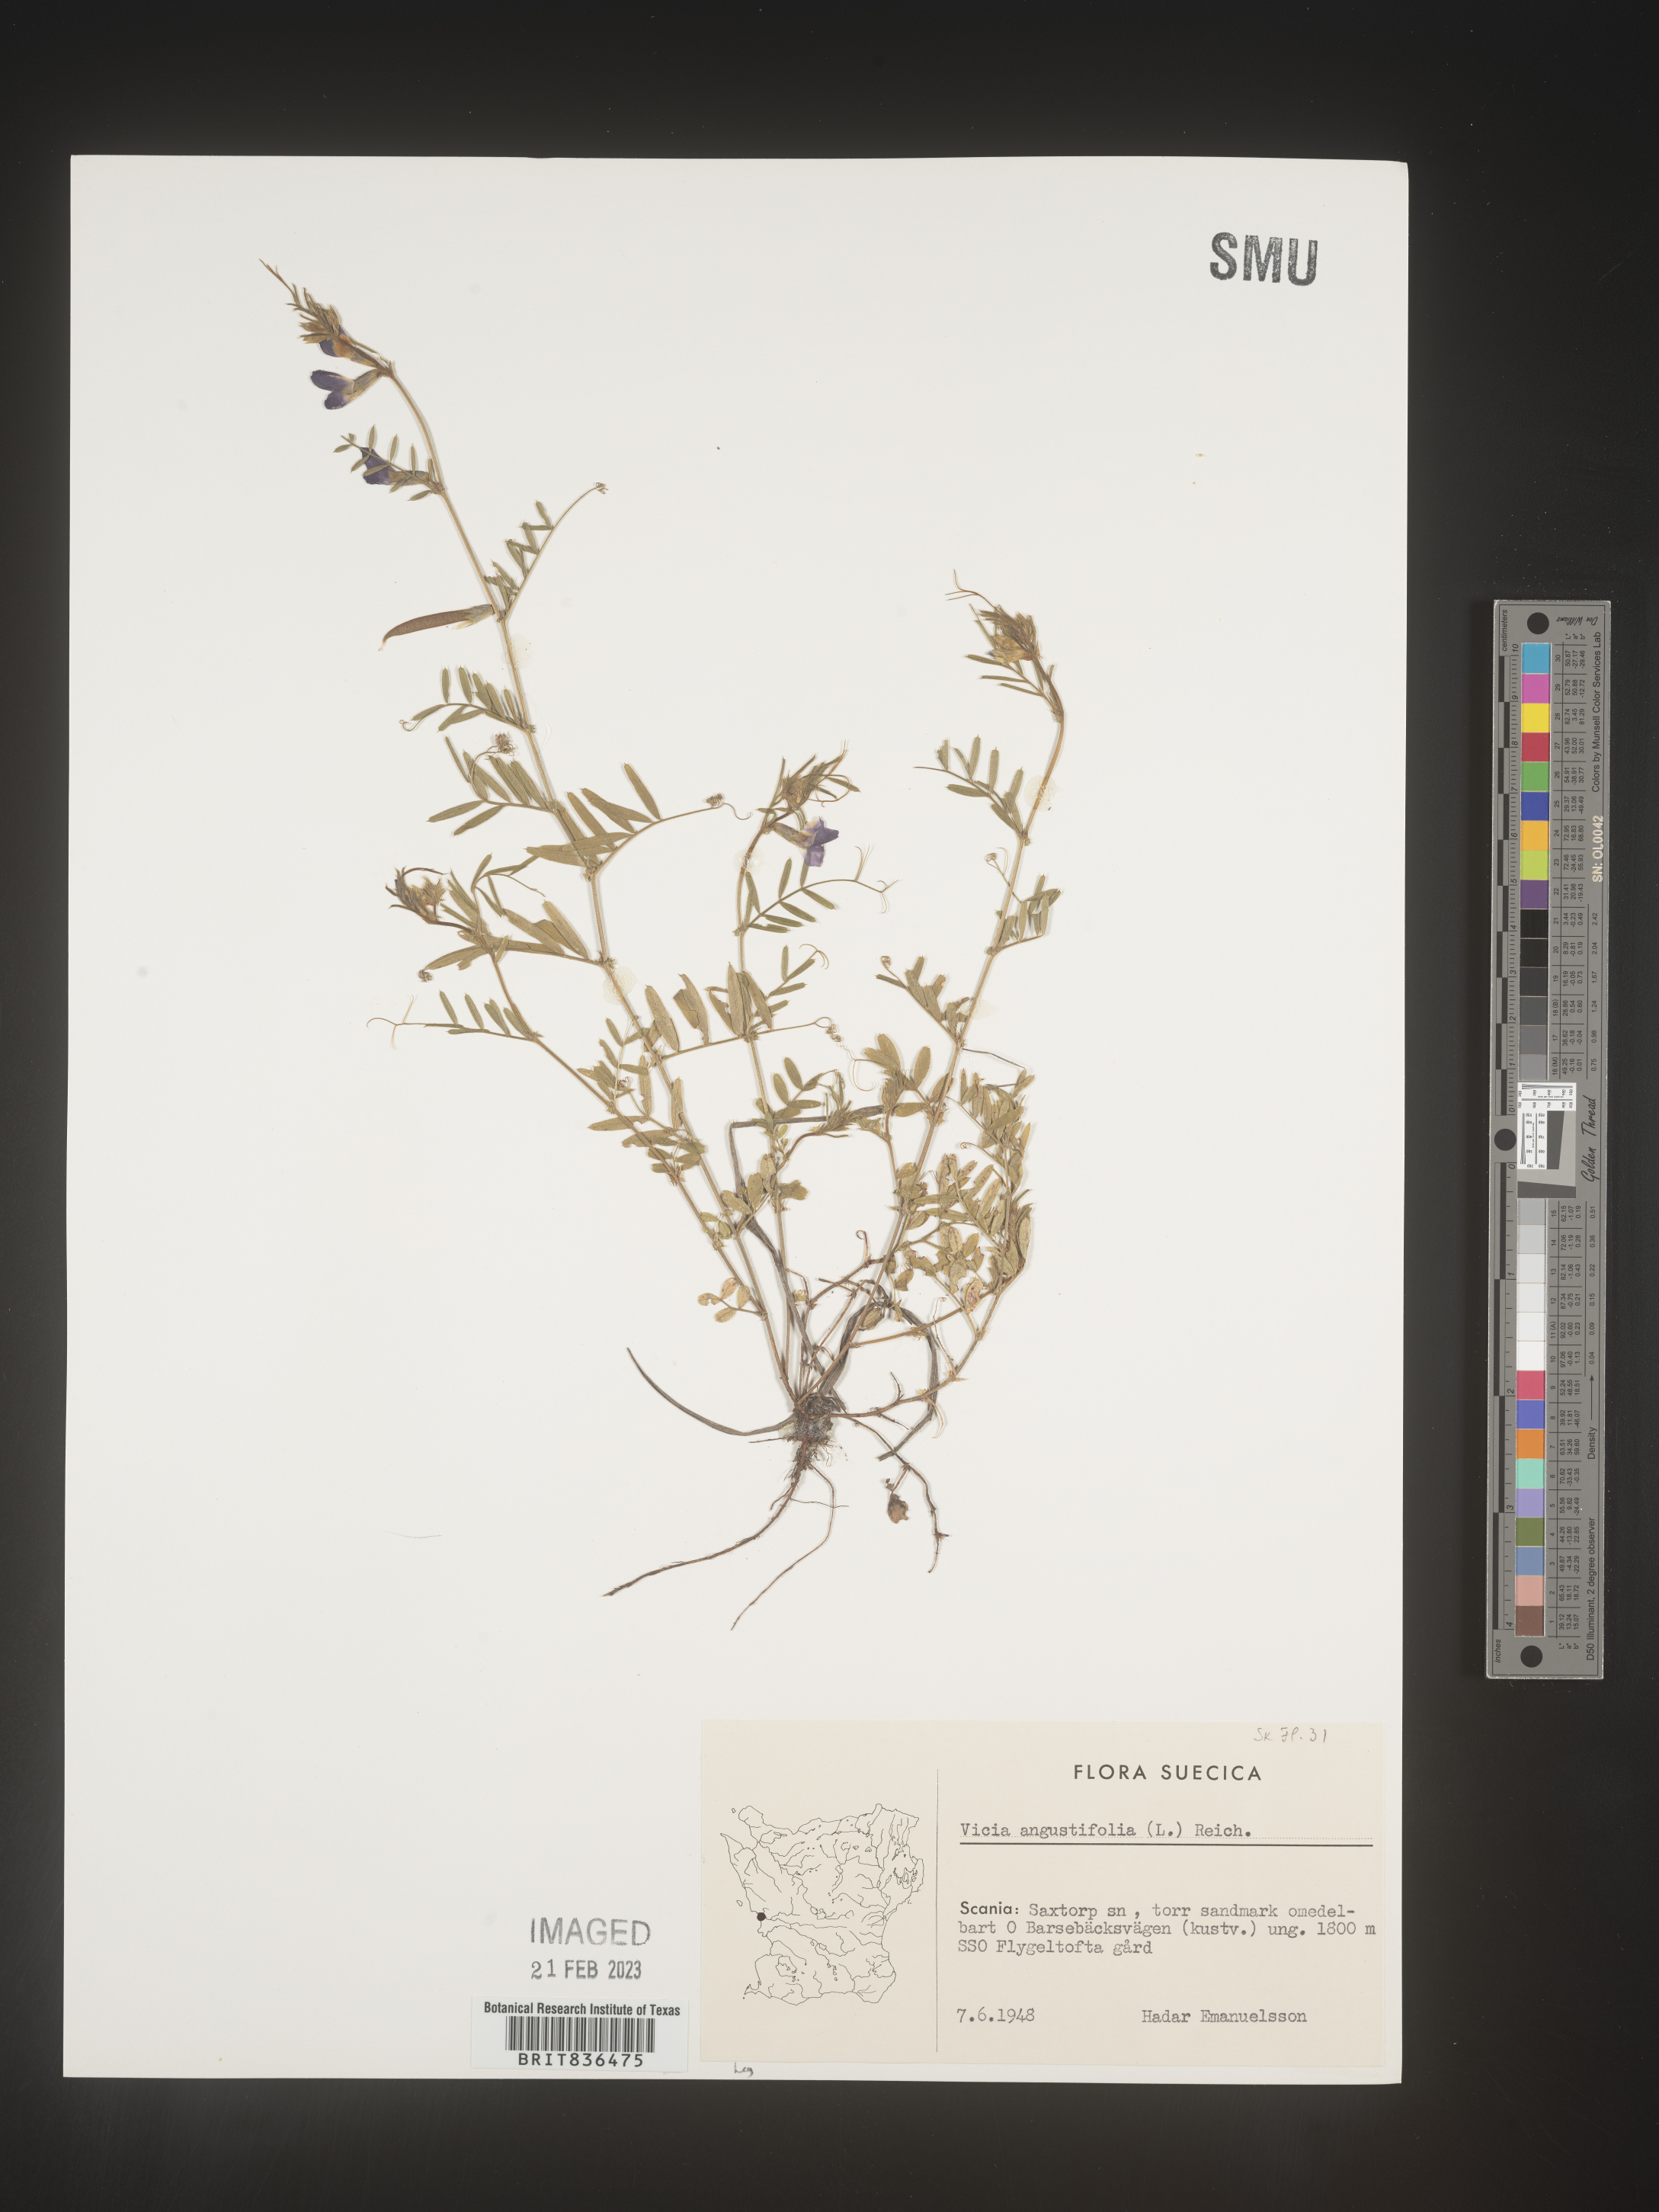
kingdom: Plantae
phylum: Tracheophyta
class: Magnoliopsida
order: Fabales
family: Fabaceae
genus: Vicia
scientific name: Vicia
